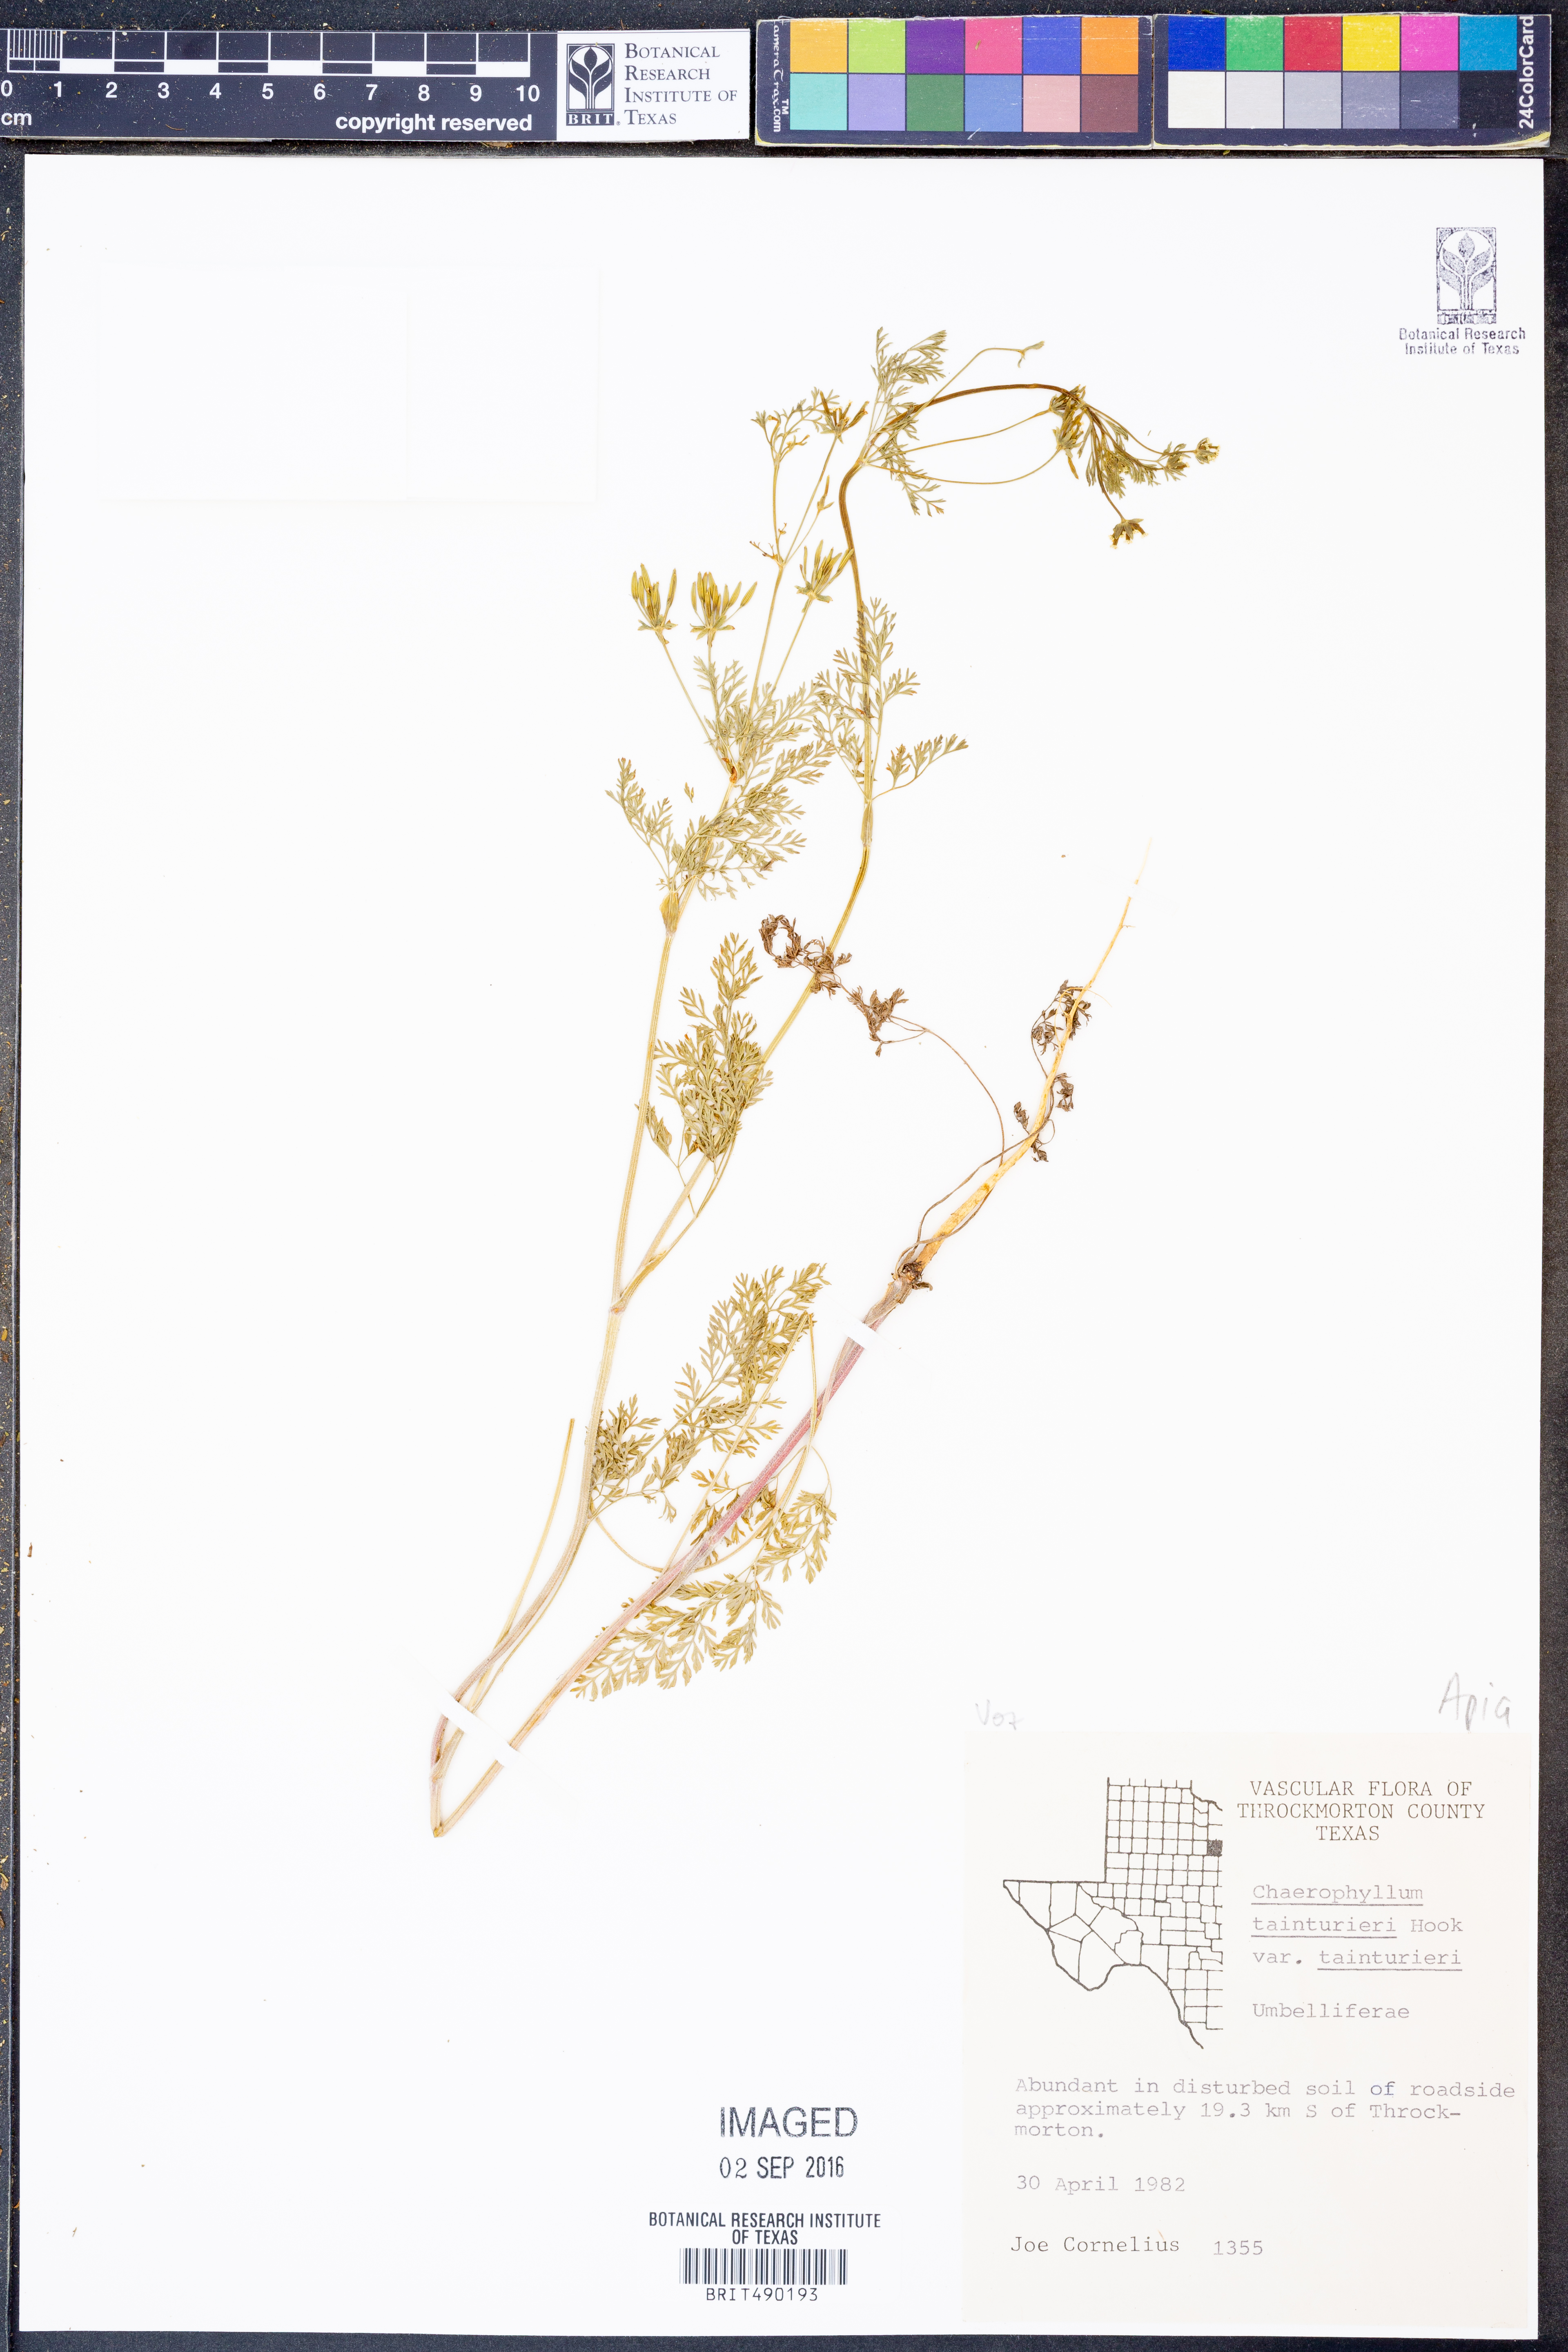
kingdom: Plantae
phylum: Tracheophyta
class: Magnoliopsida
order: Apiales
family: Apiaceae
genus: Chaerophyllum
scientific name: Chaerophyllum tainturieri
